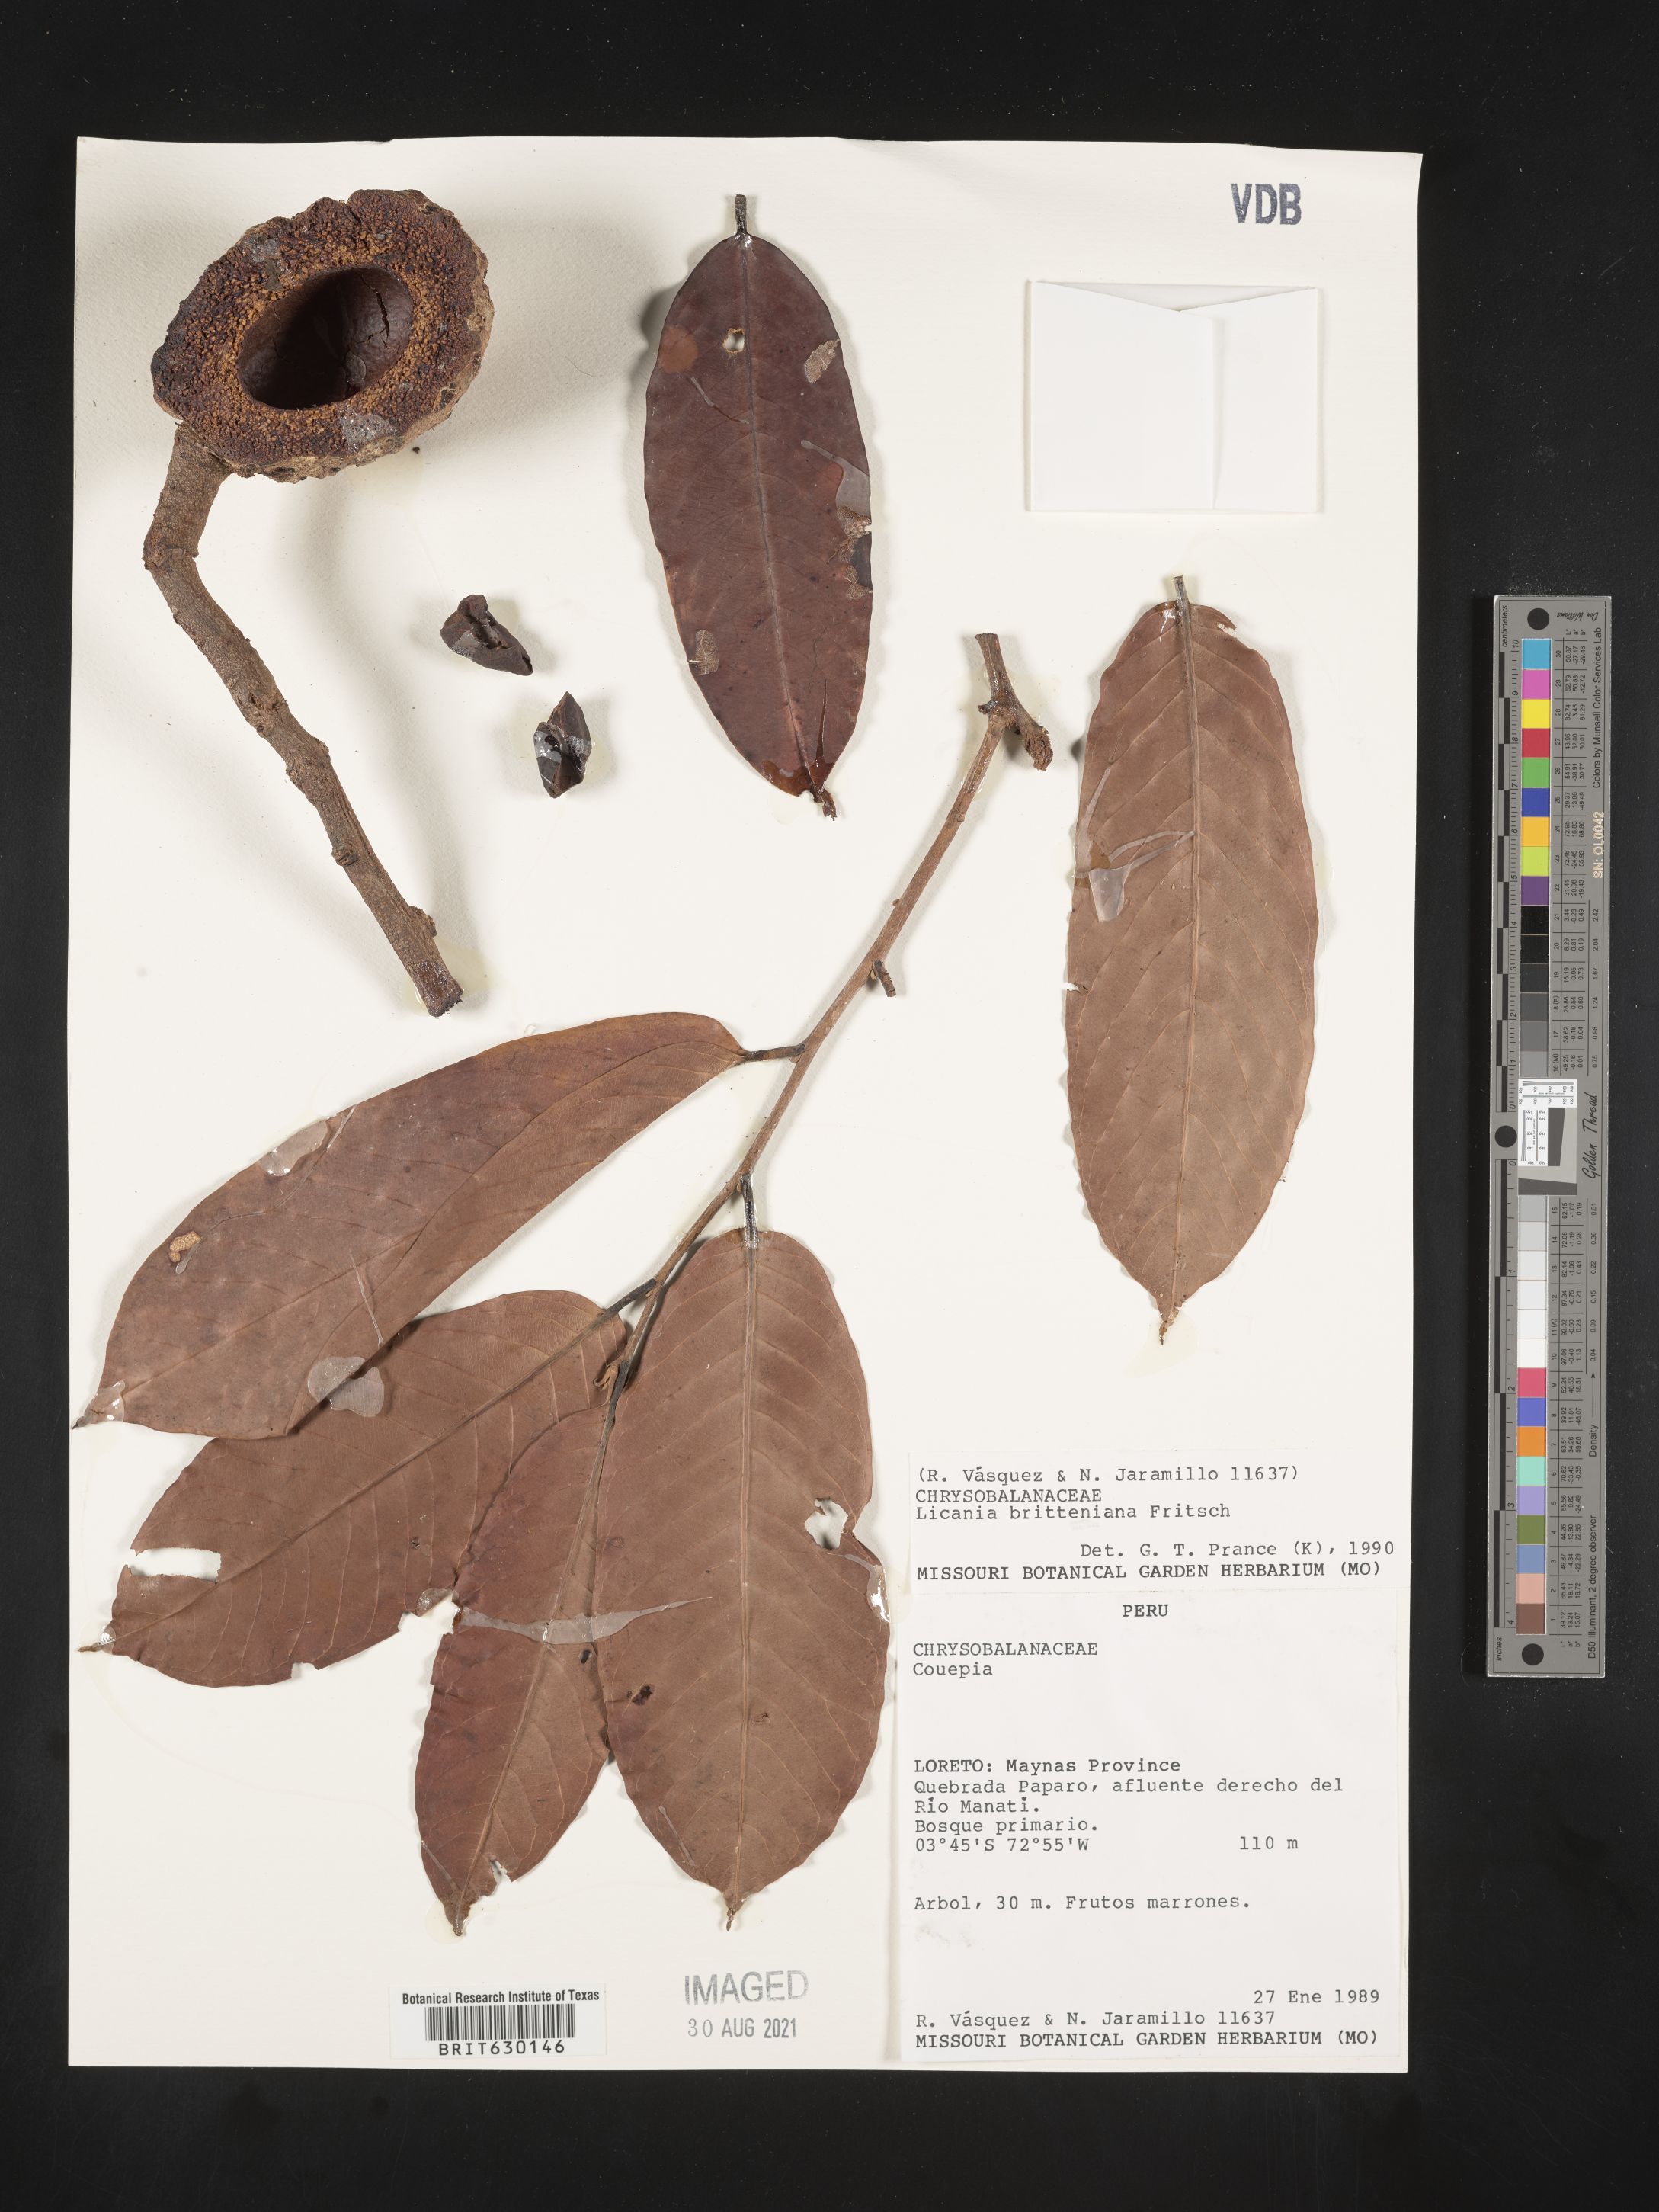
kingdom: Plantae
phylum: Tracheophyta
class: Magnoliopsida
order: Malpighiales
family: Chrysobalanaceae
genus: Moquilea
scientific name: Moquilea brittoniana
